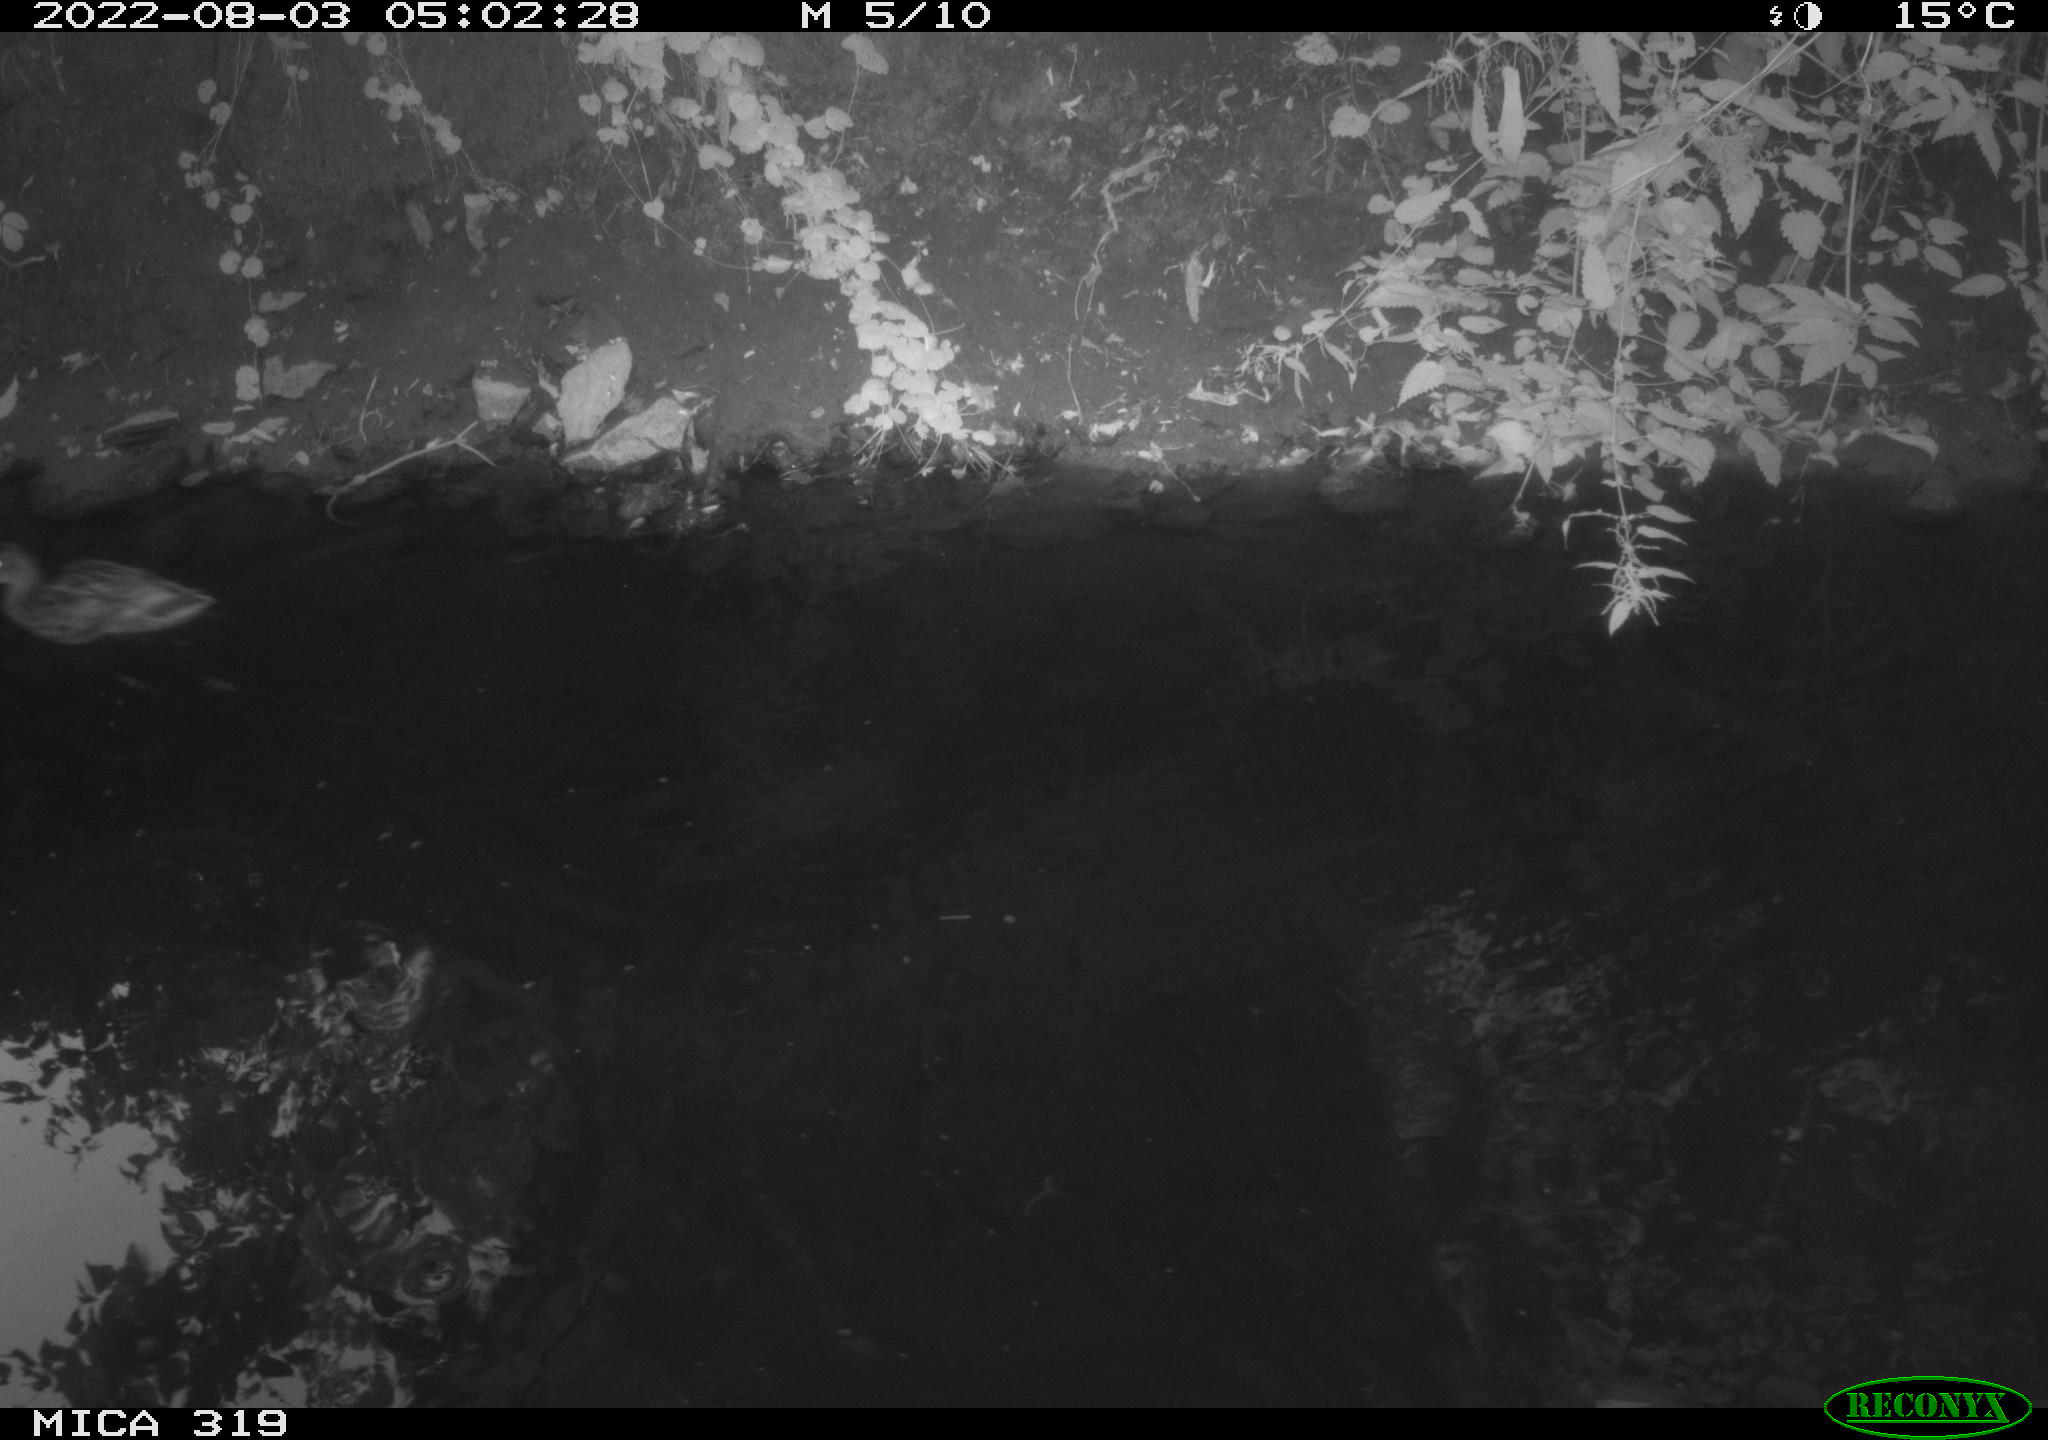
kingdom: Animalia
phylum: Chordata
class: Aves
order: Anseriformes
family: Anatidae
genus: Anas
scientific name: Anas
